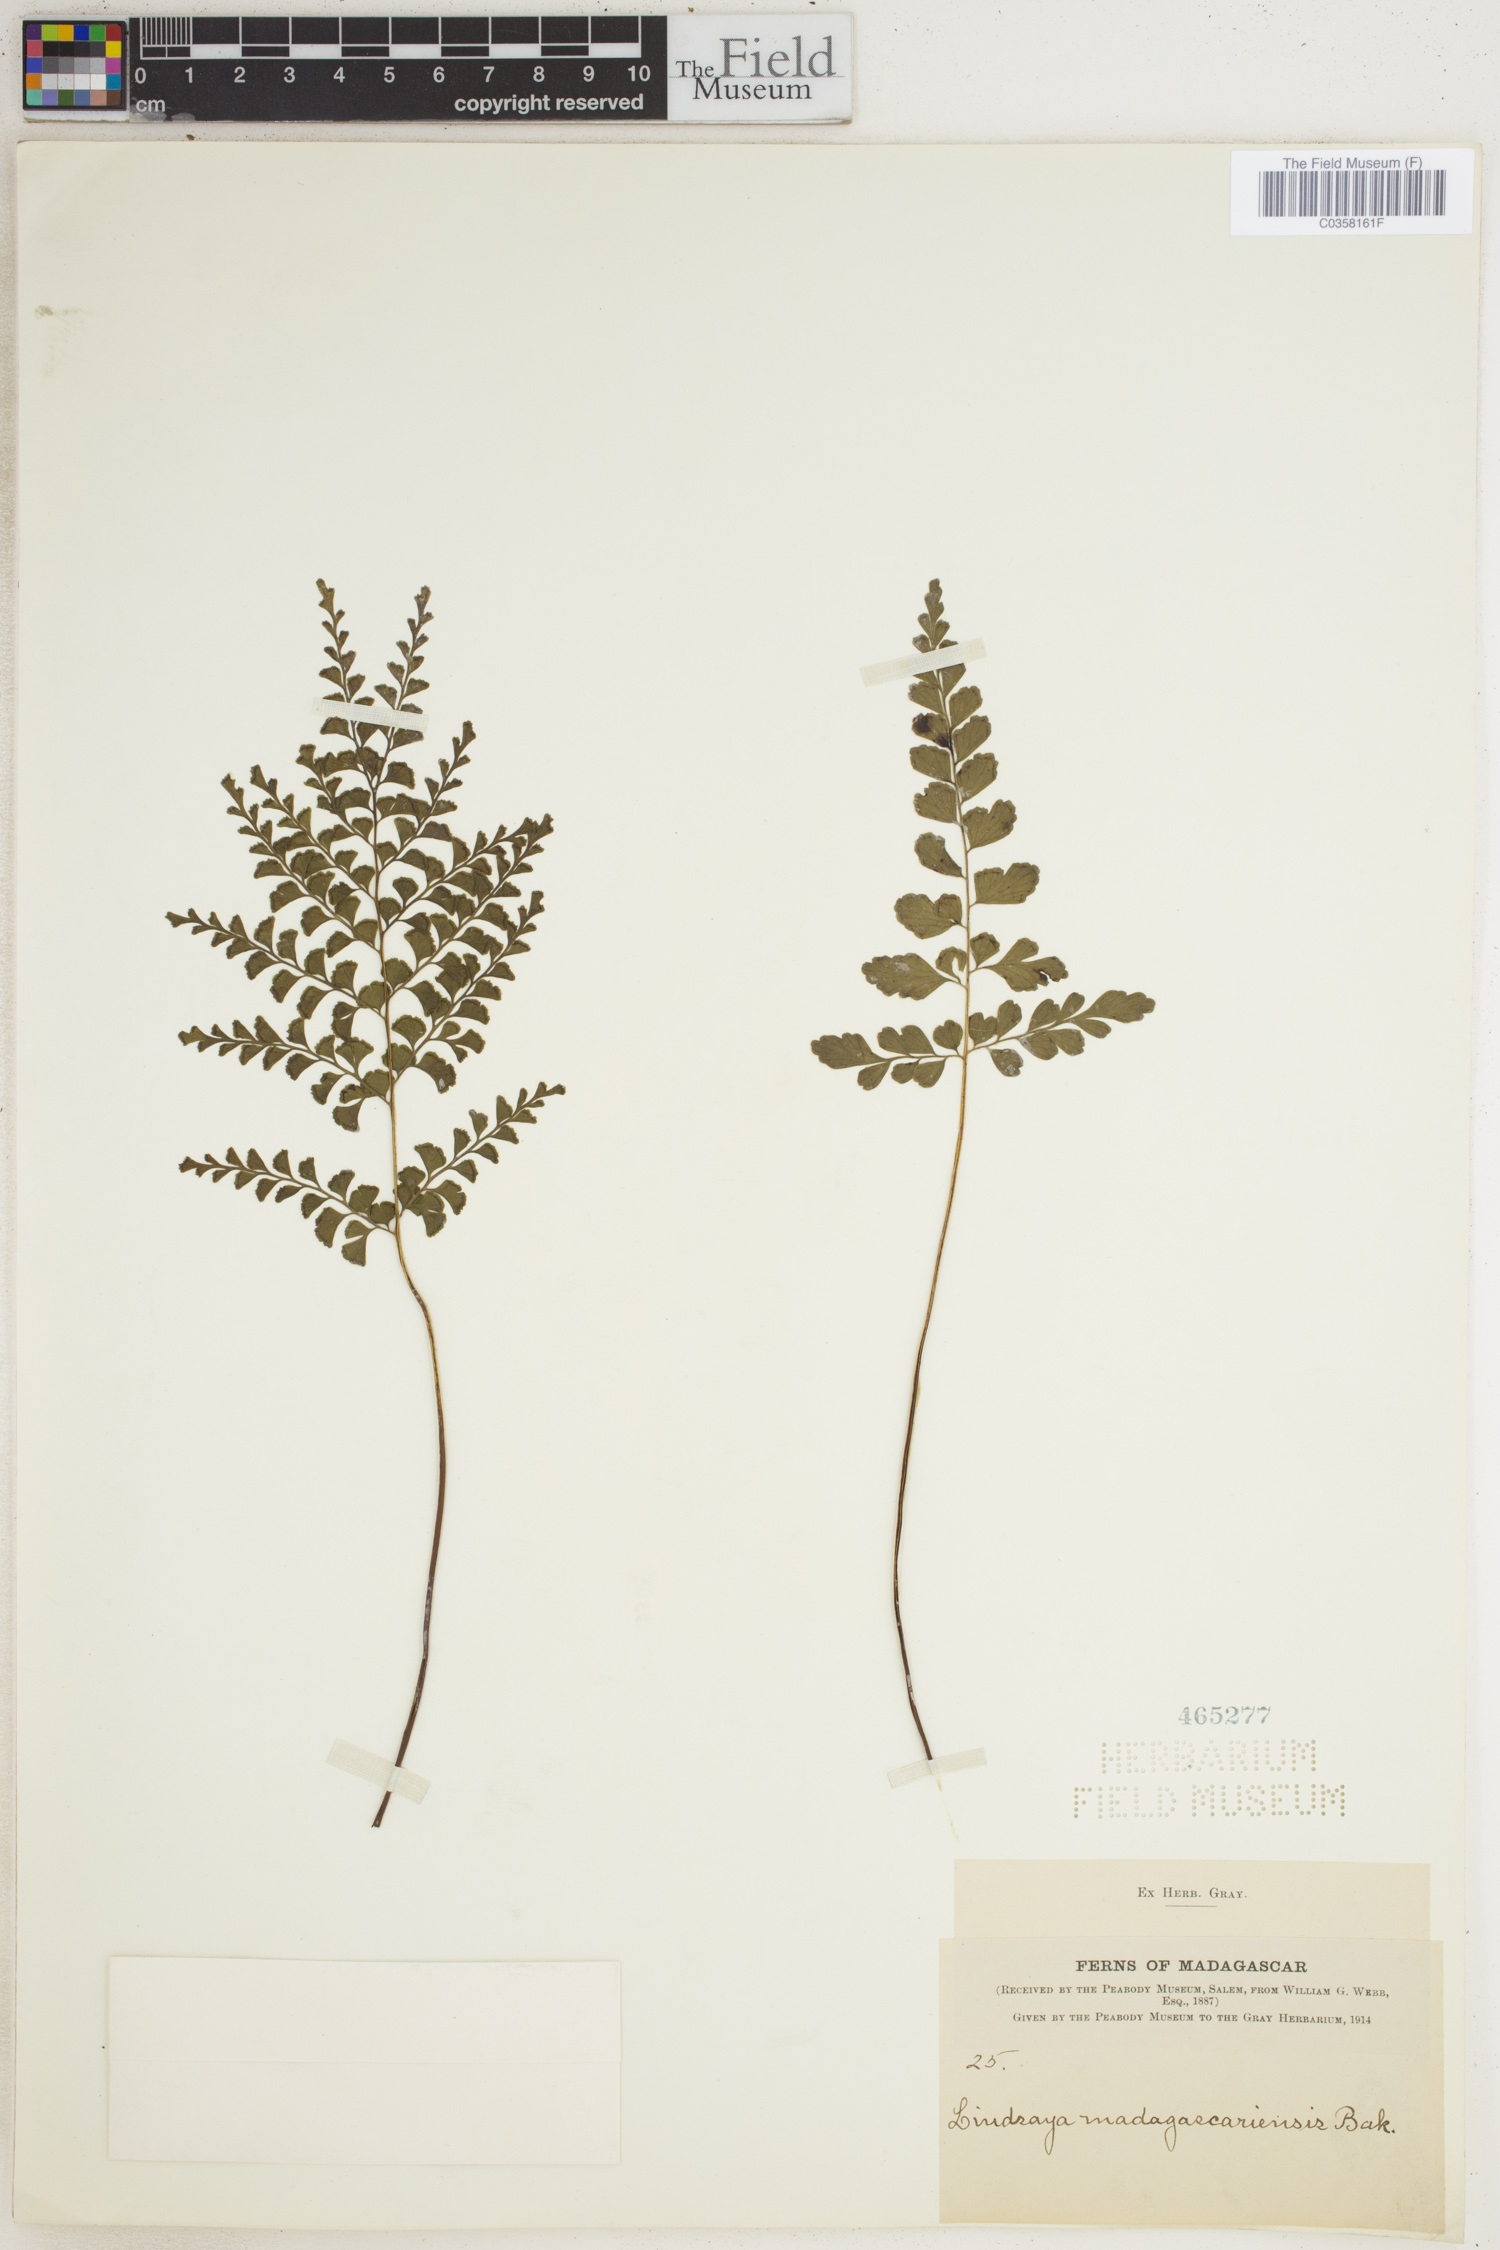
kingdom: Plantae
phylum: Tracheophyta
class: Polypodiopsida
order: Polypodiales
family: Lindsaeaceae
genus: Odontosoria
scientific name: Odontosoria madagascariensis
